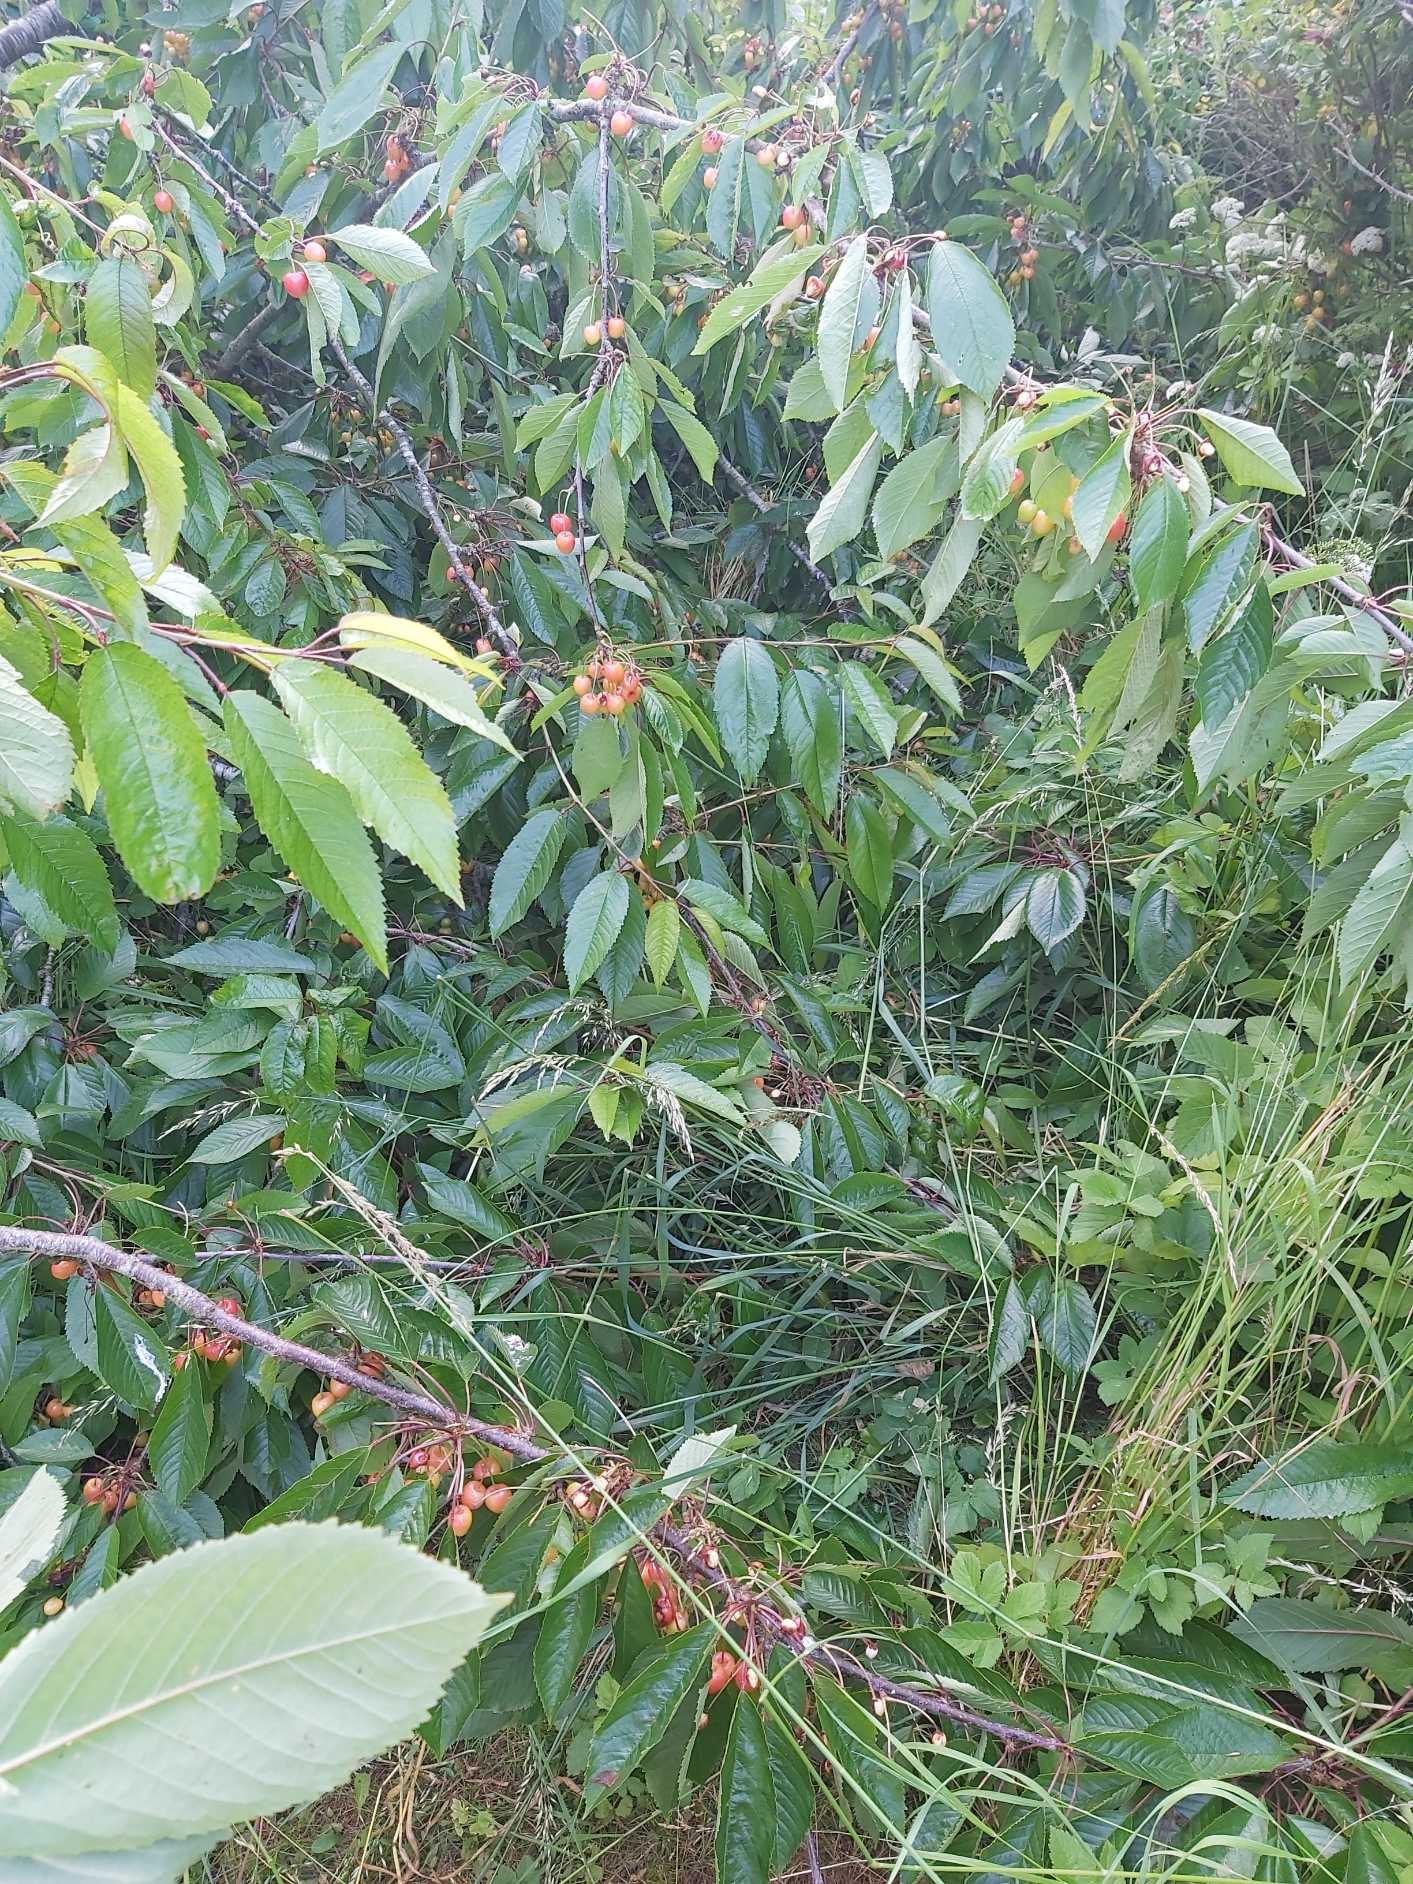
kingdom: Animalia
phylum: Chordata
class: Mammalia
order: Erinaceomorpha
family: Erinaceidae
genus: Erinaceus
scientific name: Erinaceus europaeus
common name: Pindsvin
